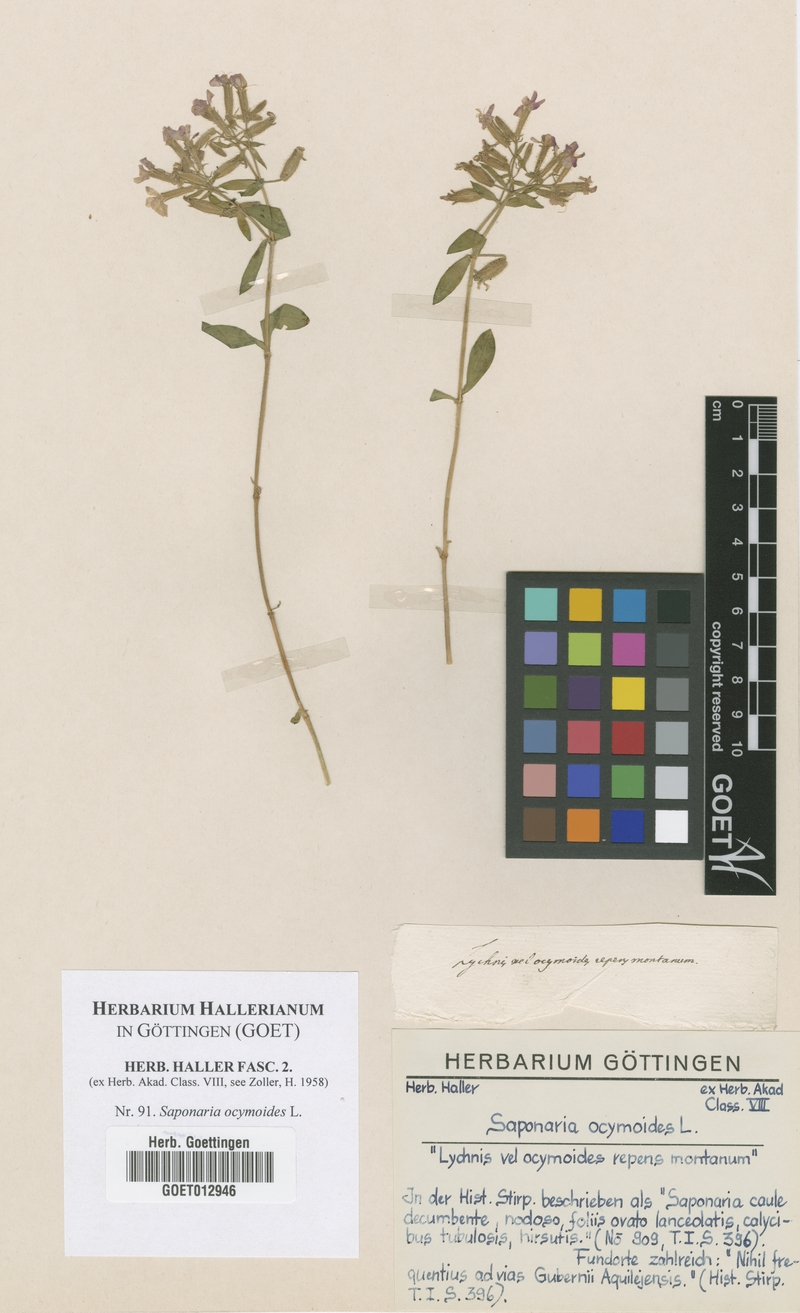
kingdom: Plantae
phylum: Tracheophyta
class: Magnoliopsida
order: Caryophyllales
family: Caryophyllaceae
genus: Saponaria
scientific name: Saponaria ocymoides
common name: Rock soapwort
